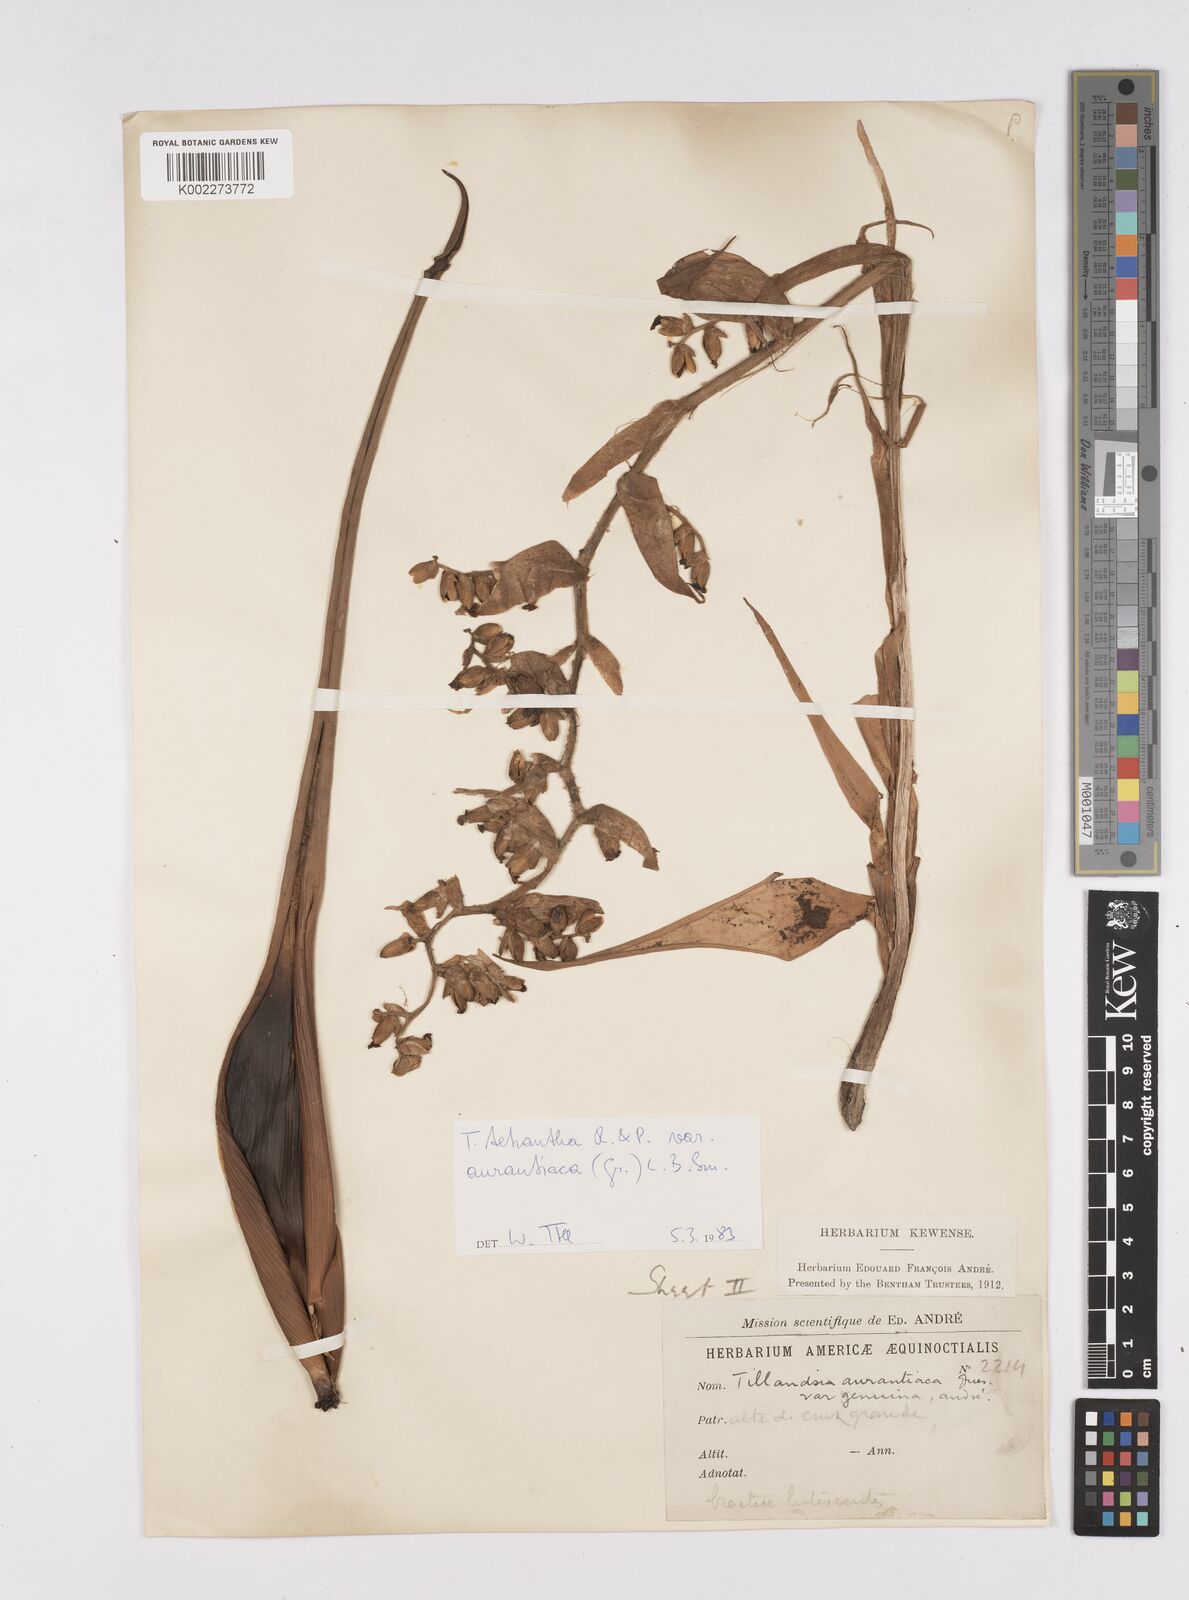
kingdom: Plantae
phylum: Tracheophyta
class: Liliopsida
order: Poales
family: Bromeliaceae
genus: Racinaea
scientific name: Racinaea tetrantha
